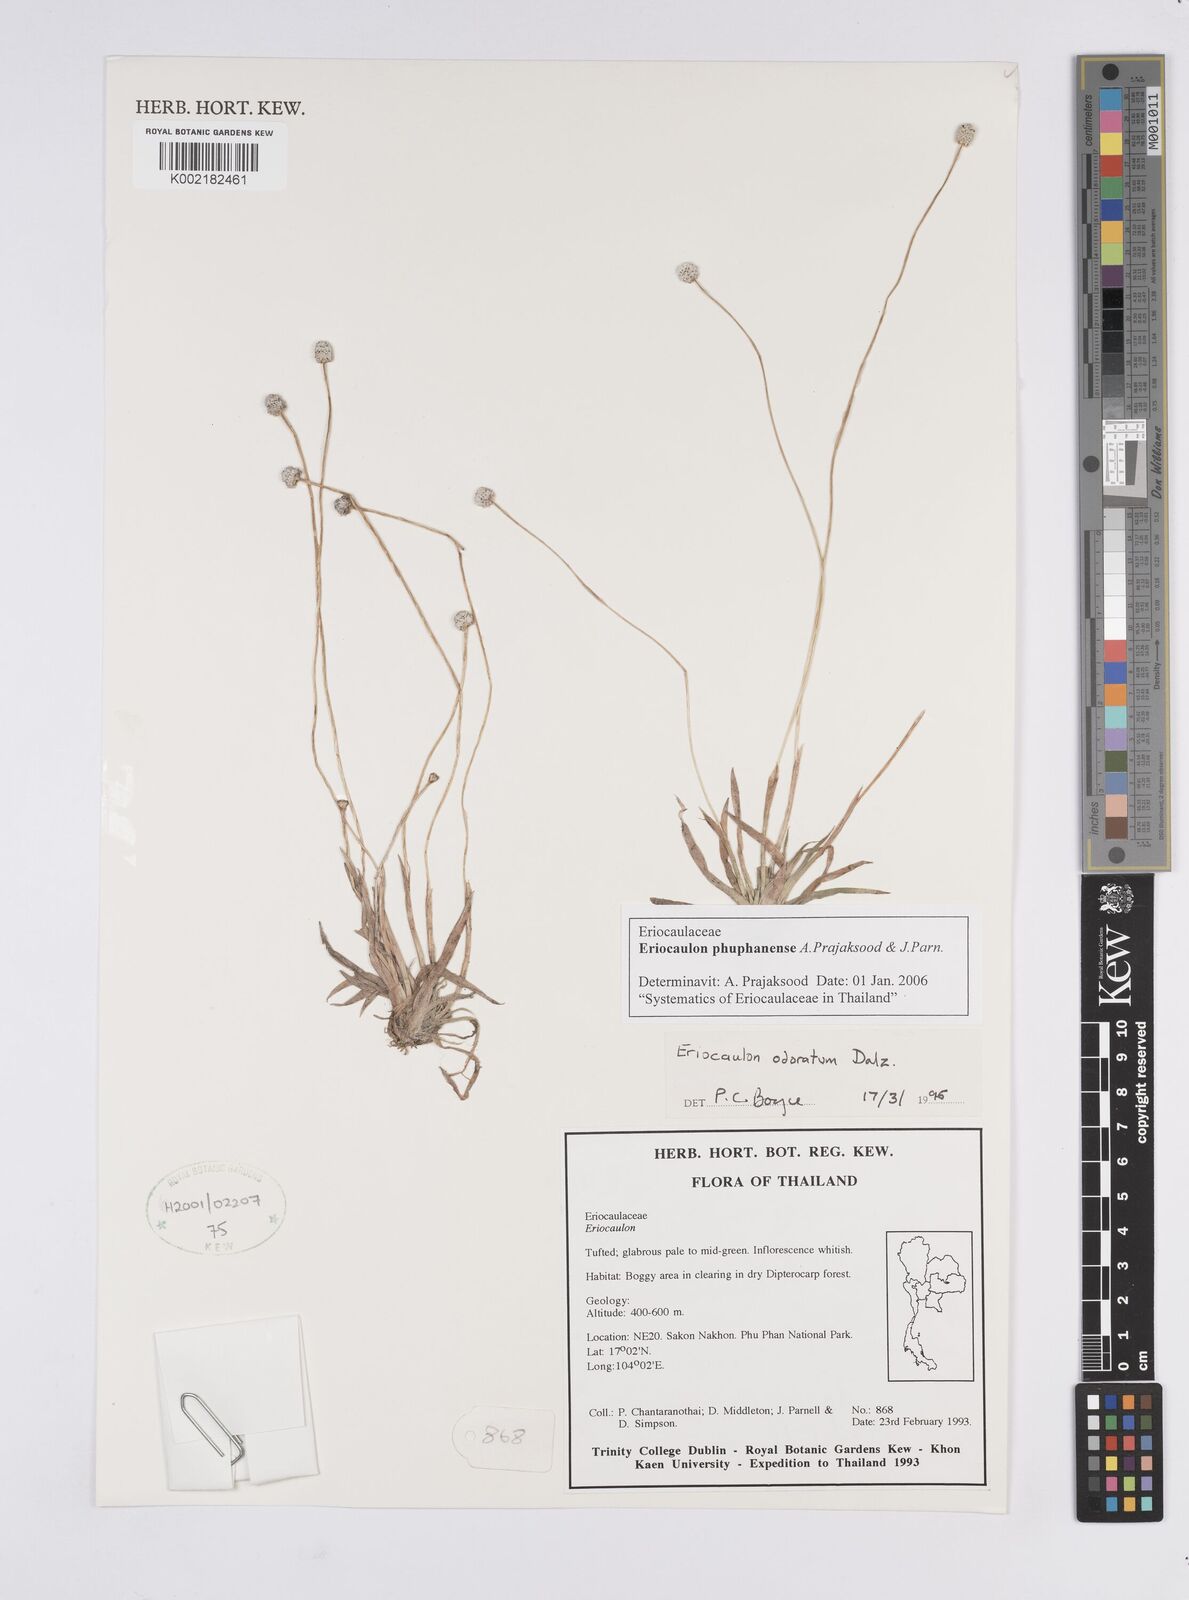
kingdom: Plantae
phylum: Tracheophyta
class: Liliopsida
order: Poales
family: Eriocaulaceae
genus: Eriocaulon
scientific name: Eriocaulon phuphanense
